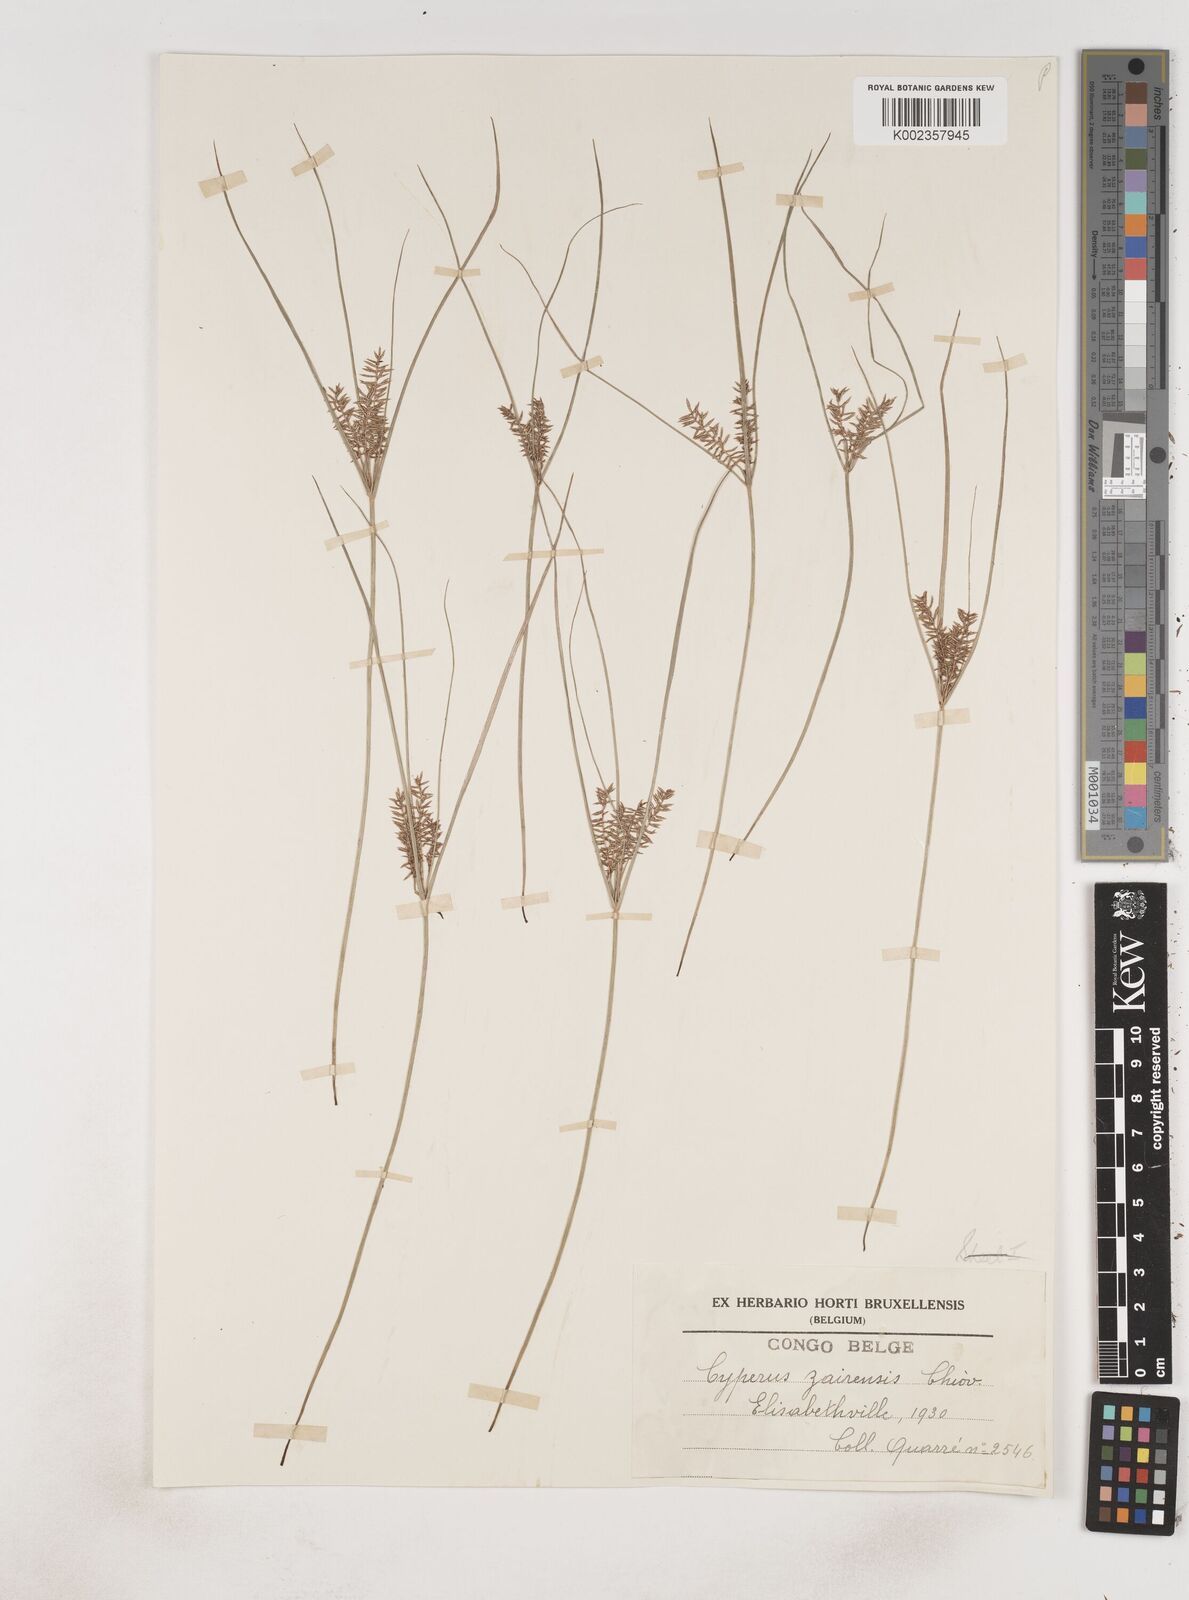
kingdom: Plantae
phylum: Tracheophyta
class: Liliopsida
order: Poales
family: Cyperaceae
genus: Cyperus
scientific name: Cyperus papyrus
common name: Papyrus
